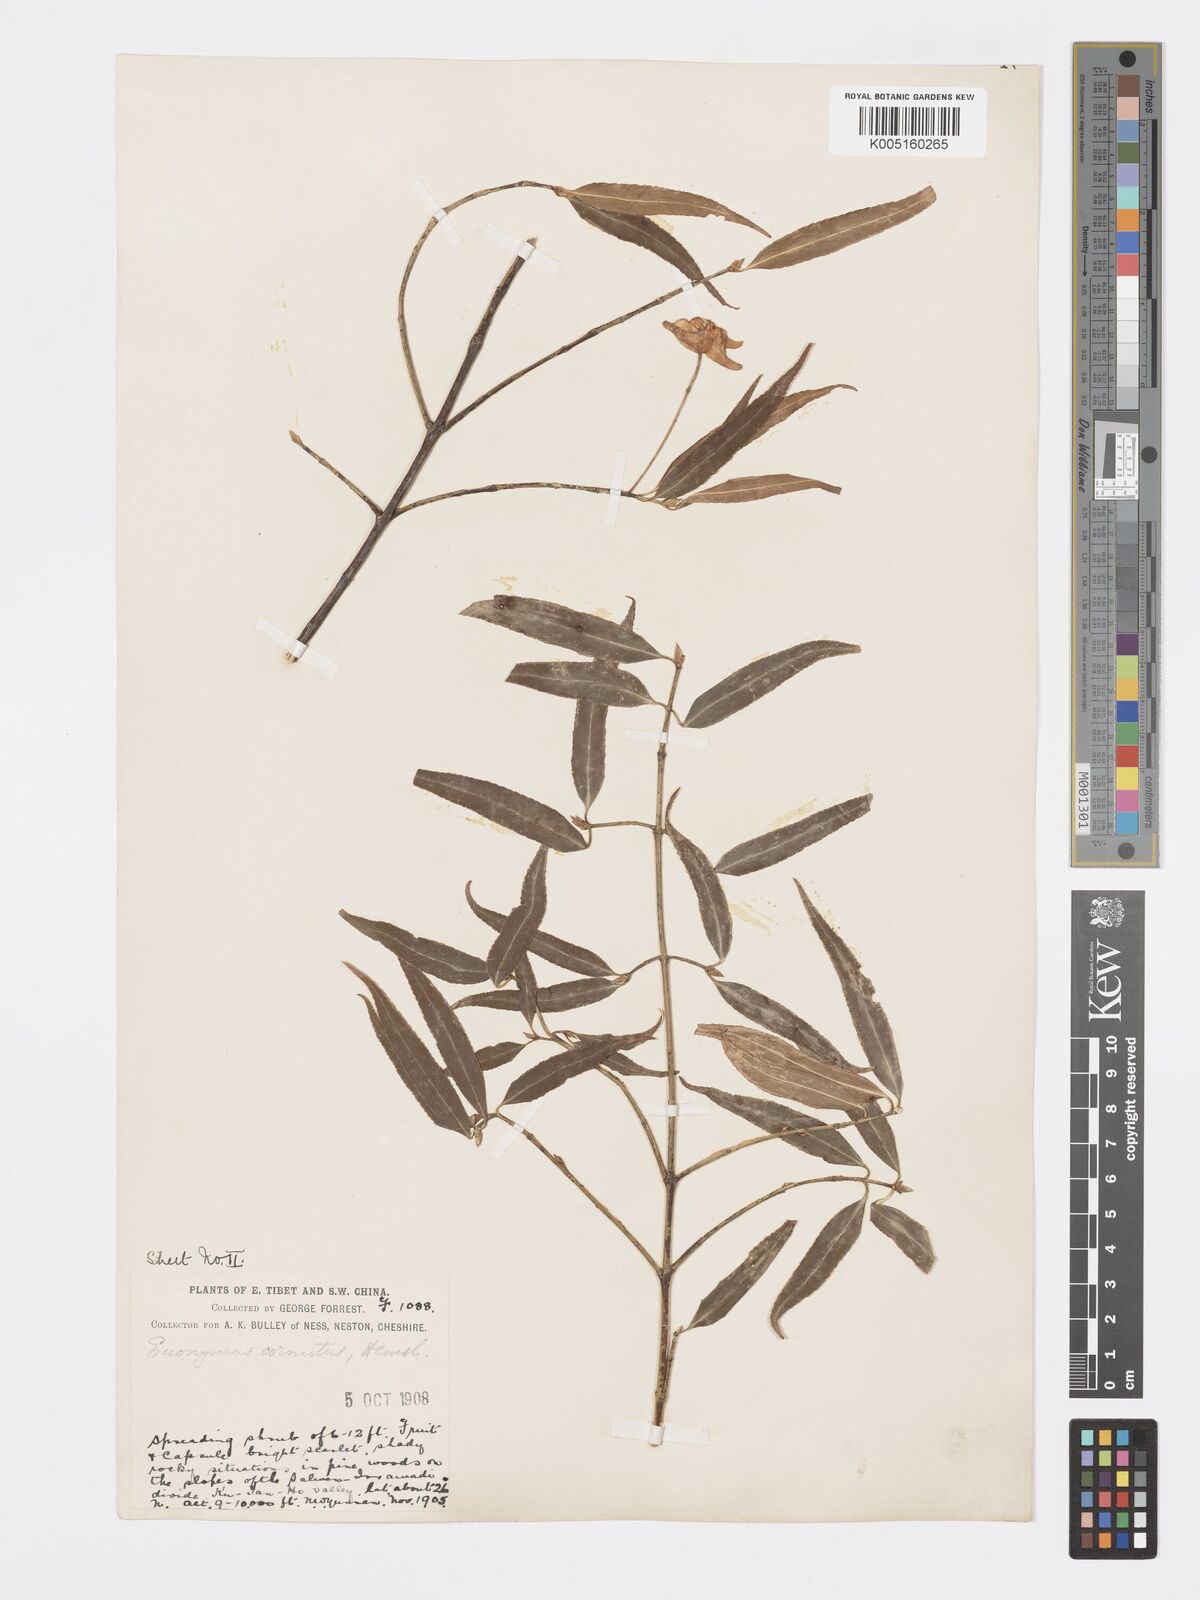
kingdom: Plantae
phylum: Tracheophyta
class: Magnoliopsida
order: Celastrales
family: Celastraceae
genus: Euonymus
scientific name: Euonymus cornutus
